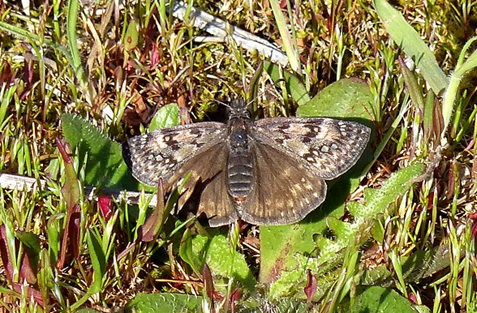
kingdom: Animalia
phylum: Arthropoda
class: Insecta
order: Lepidoptera
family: Hesperiidae
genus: Erynnis
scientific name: Erynnis propertius
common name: Propertius Duskywing
